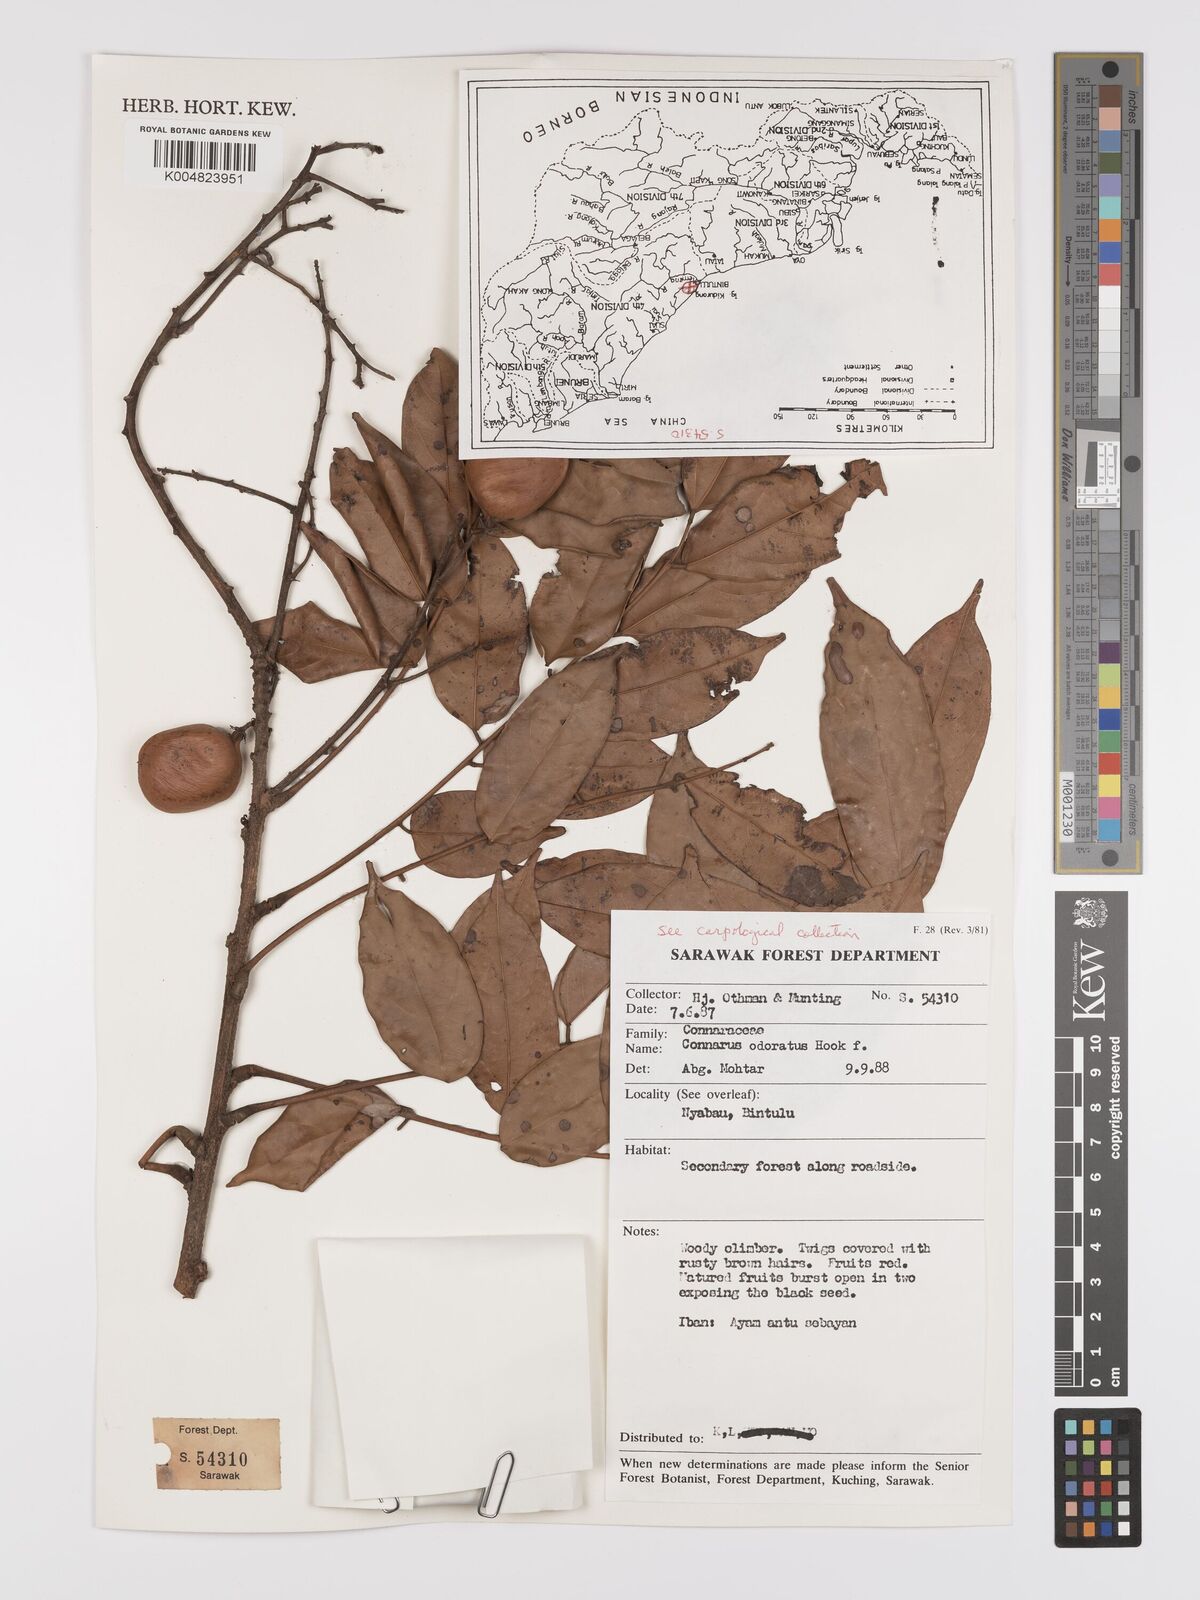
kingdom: Plantae
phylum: Tracheophyta
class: Magnoliopsida
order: Oxalidales
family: Connaraceae
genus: Connarus
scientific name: Connarus odoratus
